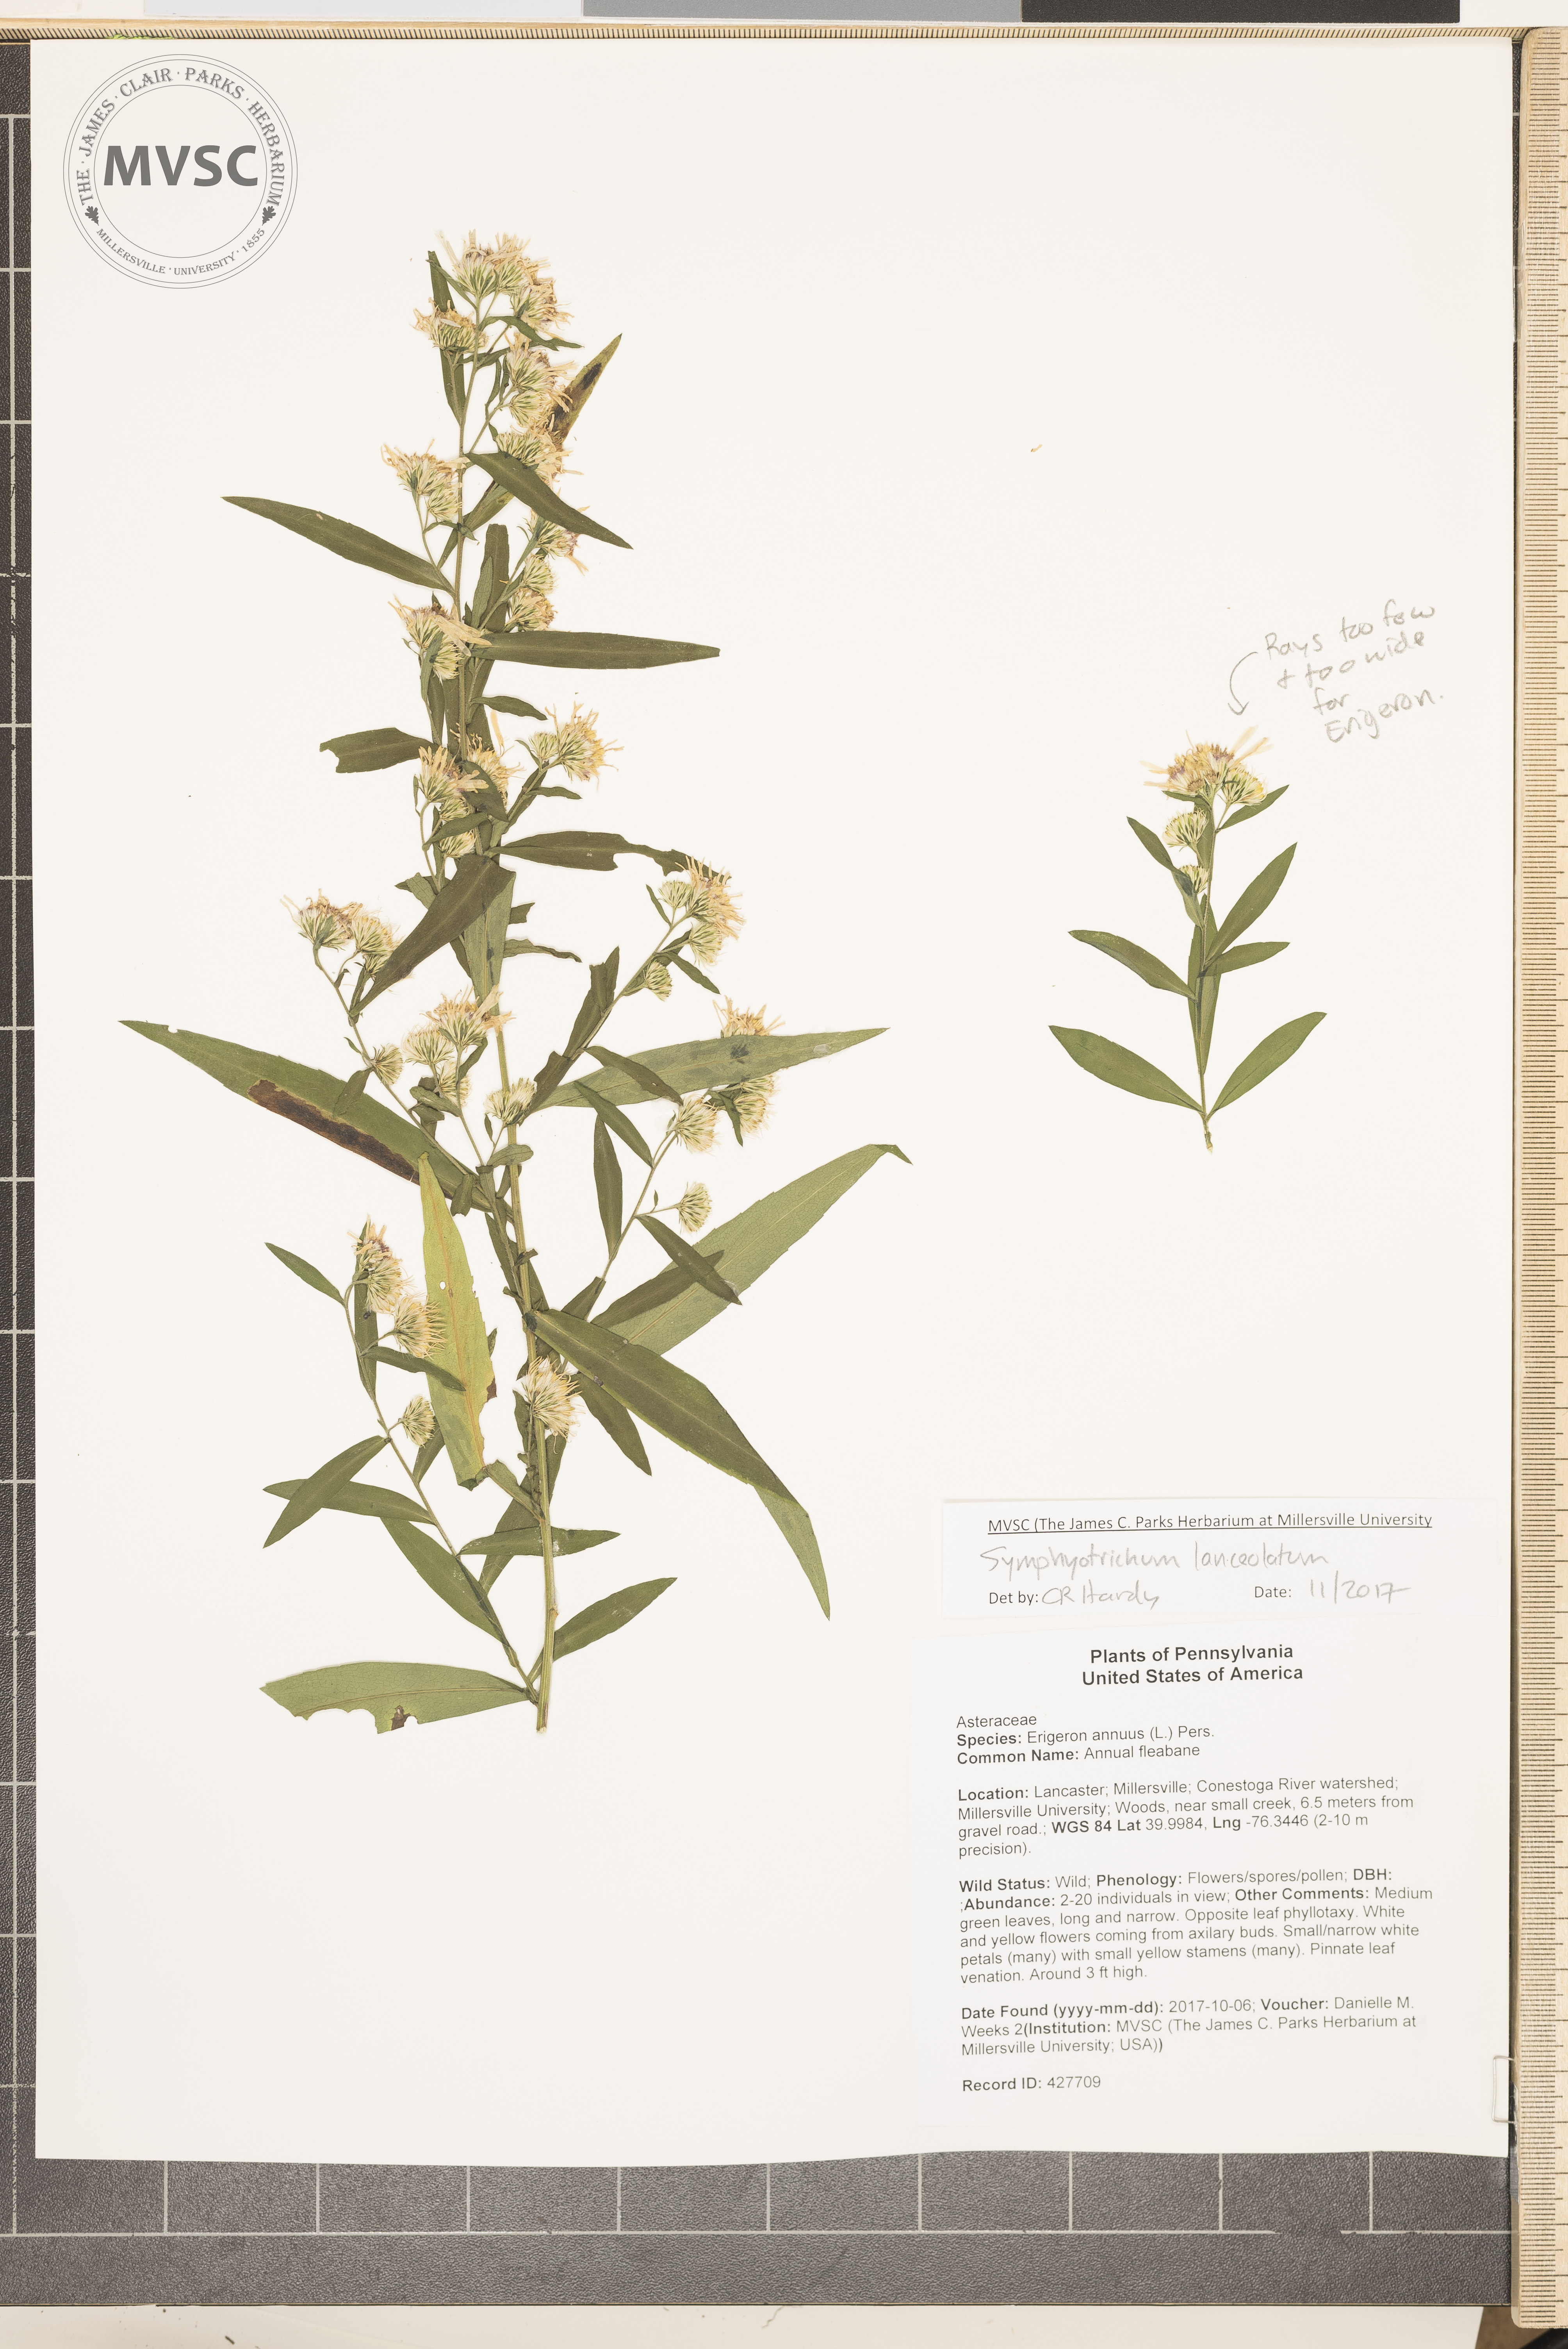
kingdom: Plantae
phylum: Tracheophyta
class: Magnoliopsida
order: Asterales
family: Asteraceae
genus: Symphyotrichum
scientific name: Symphyotrichum lanceolatum
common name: Aster
